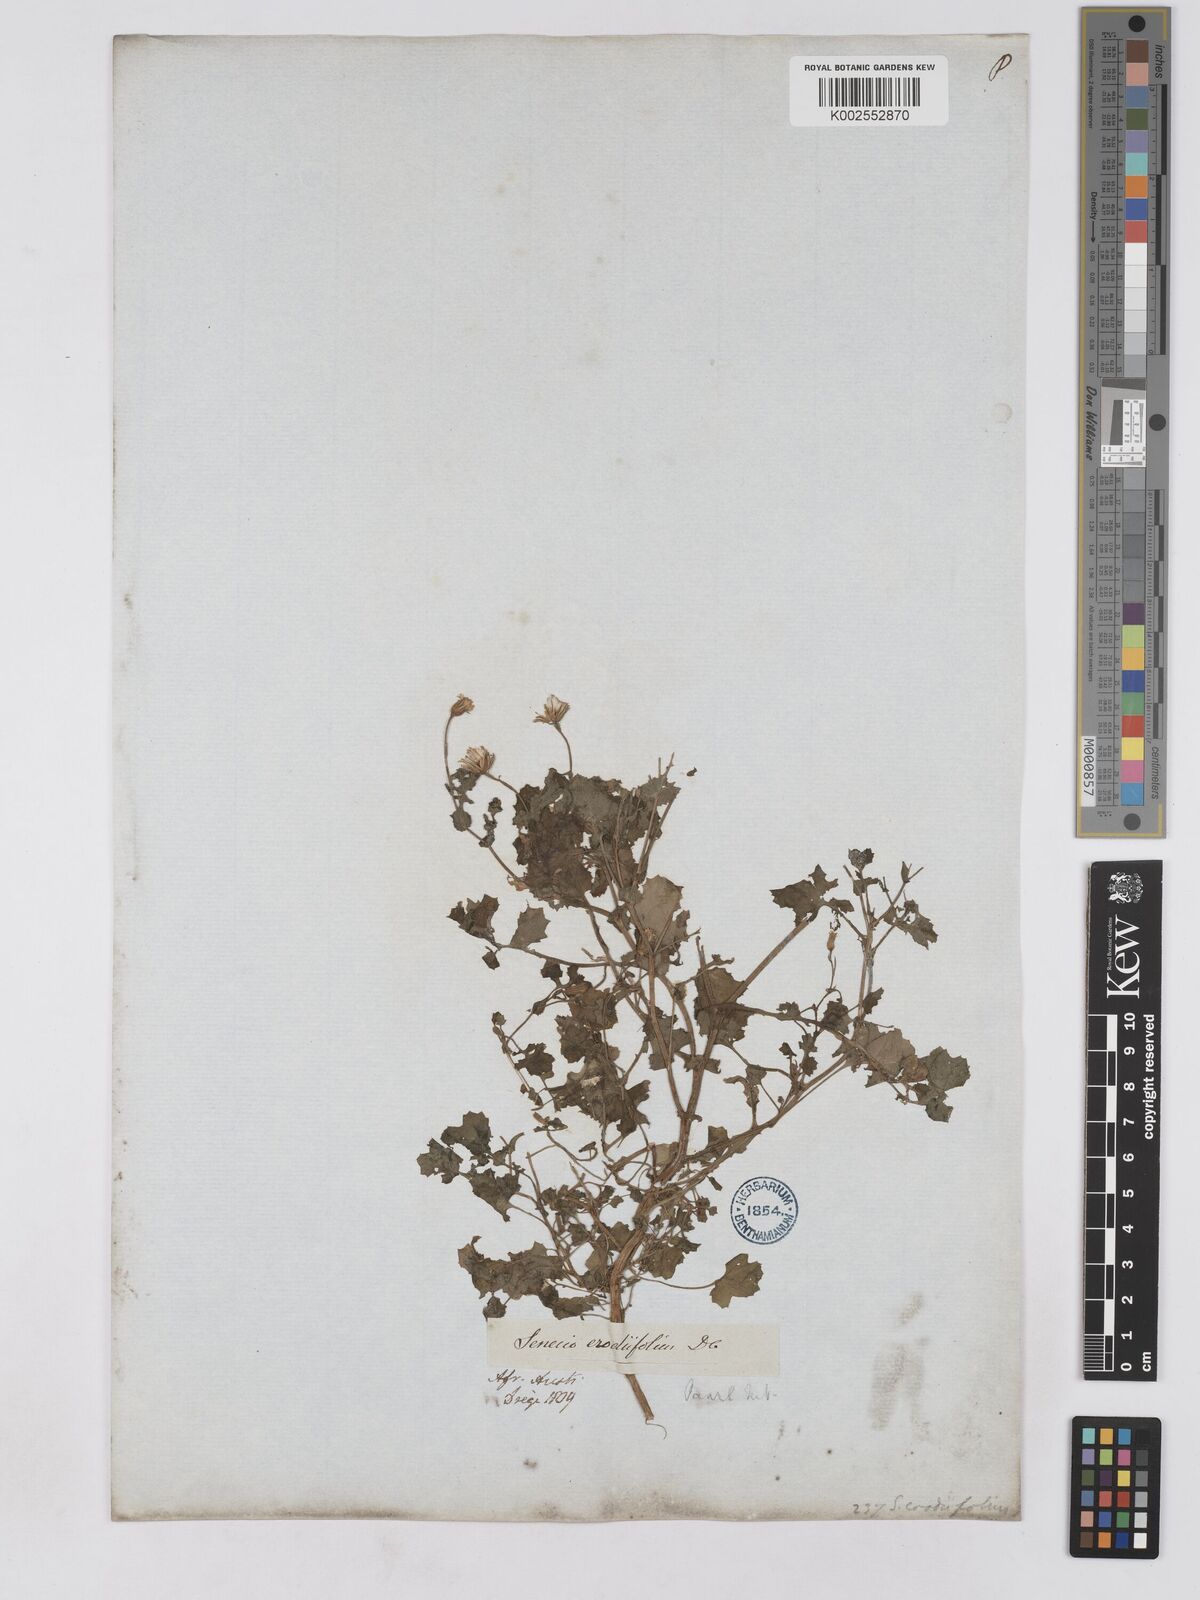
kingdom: Plantae
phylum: Tracheophyta
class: Magnoliopsida
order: Asterales
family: Asteraceae
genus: Senecio
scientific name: Senecio repandus
